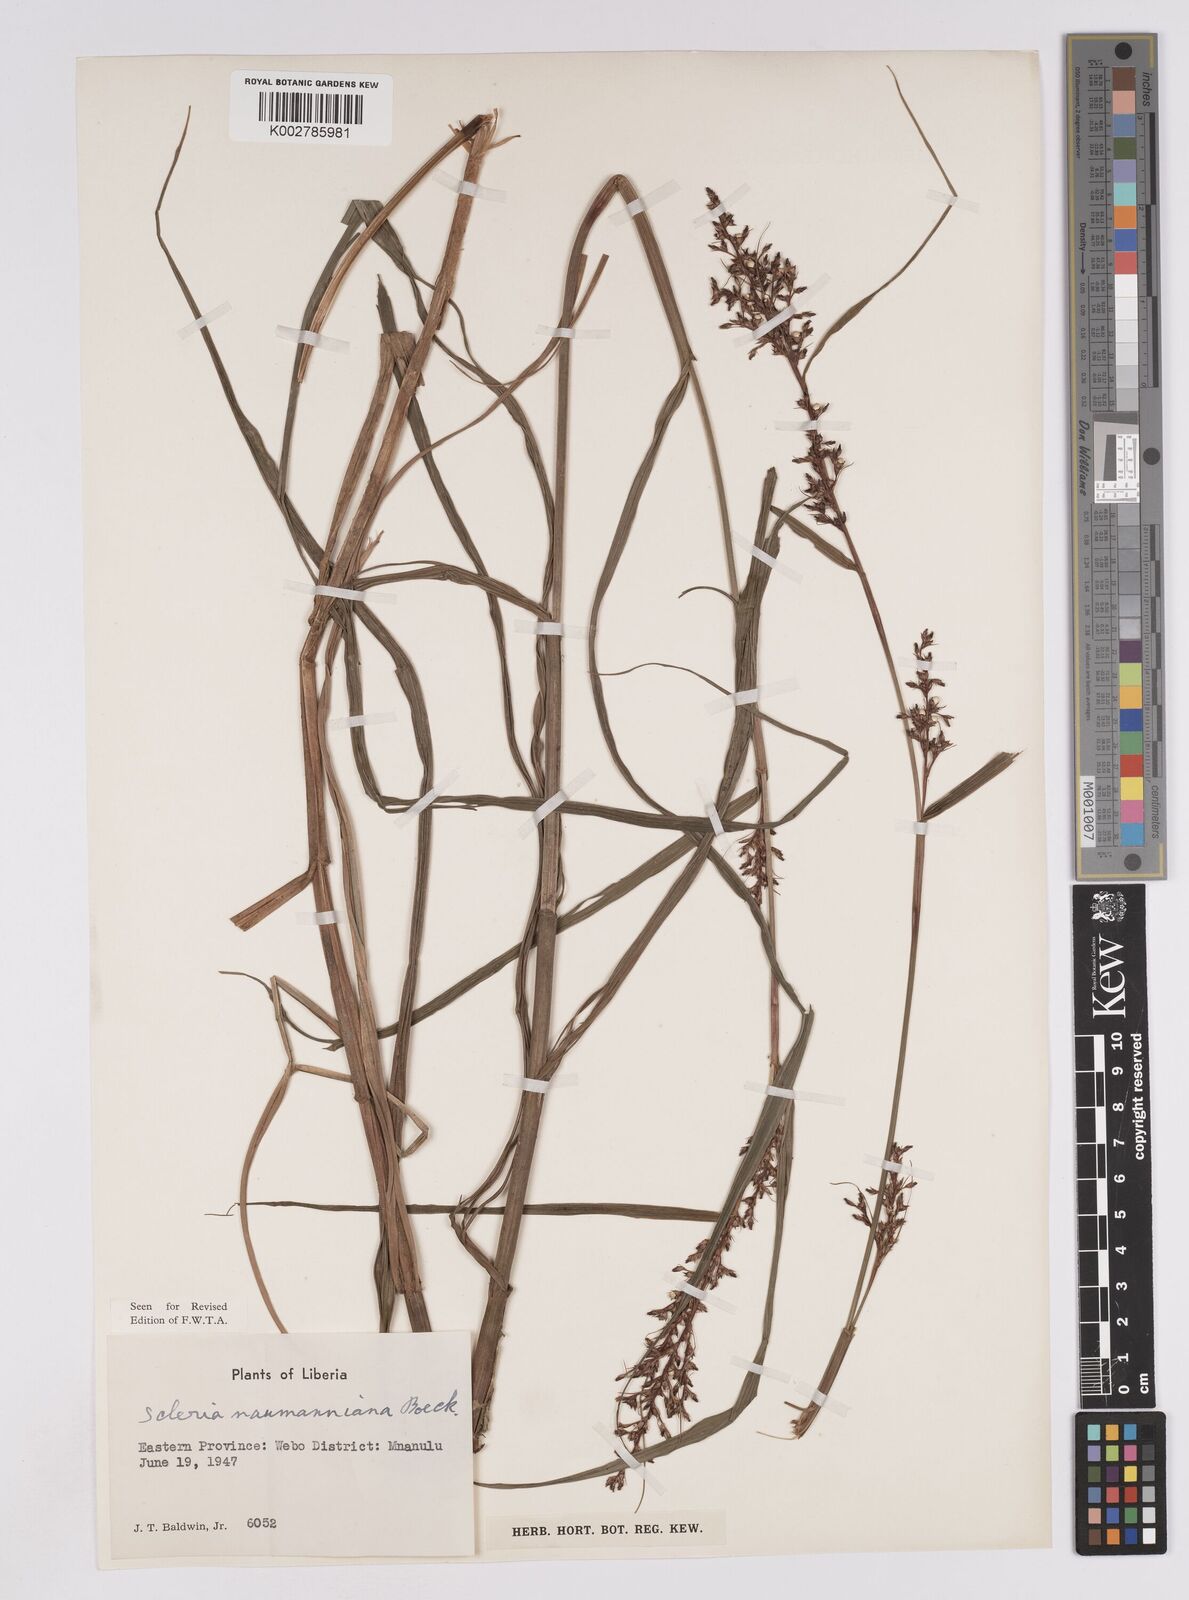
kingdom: Plantae
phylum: Tracheophyta
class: Liliopsida
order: Poales
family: Cyperaceae
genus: Scleria
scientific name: Scleria naumanniana
